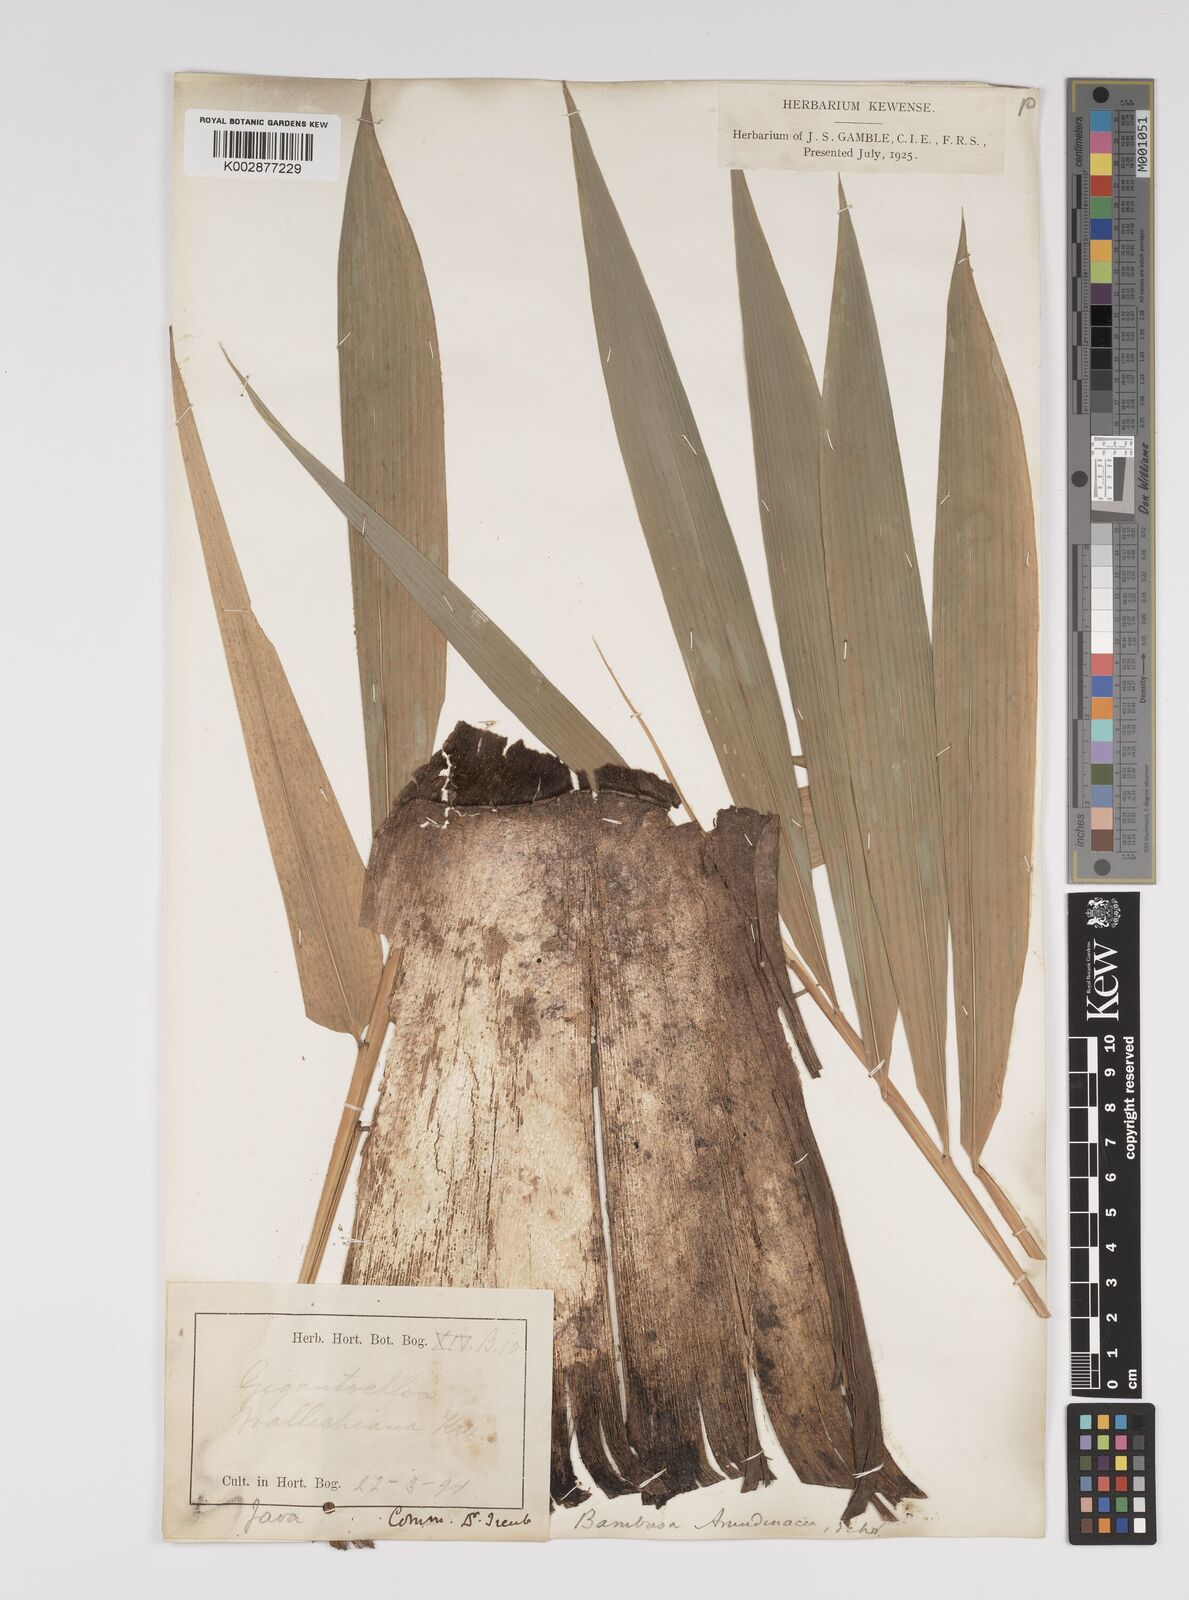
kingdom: Plantae
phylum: Tracheophyta
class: Liliopsida
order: Poales
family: Poaceae
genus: Bambusa
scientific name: Bambusa bambos
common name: Indian thorny bamboo
